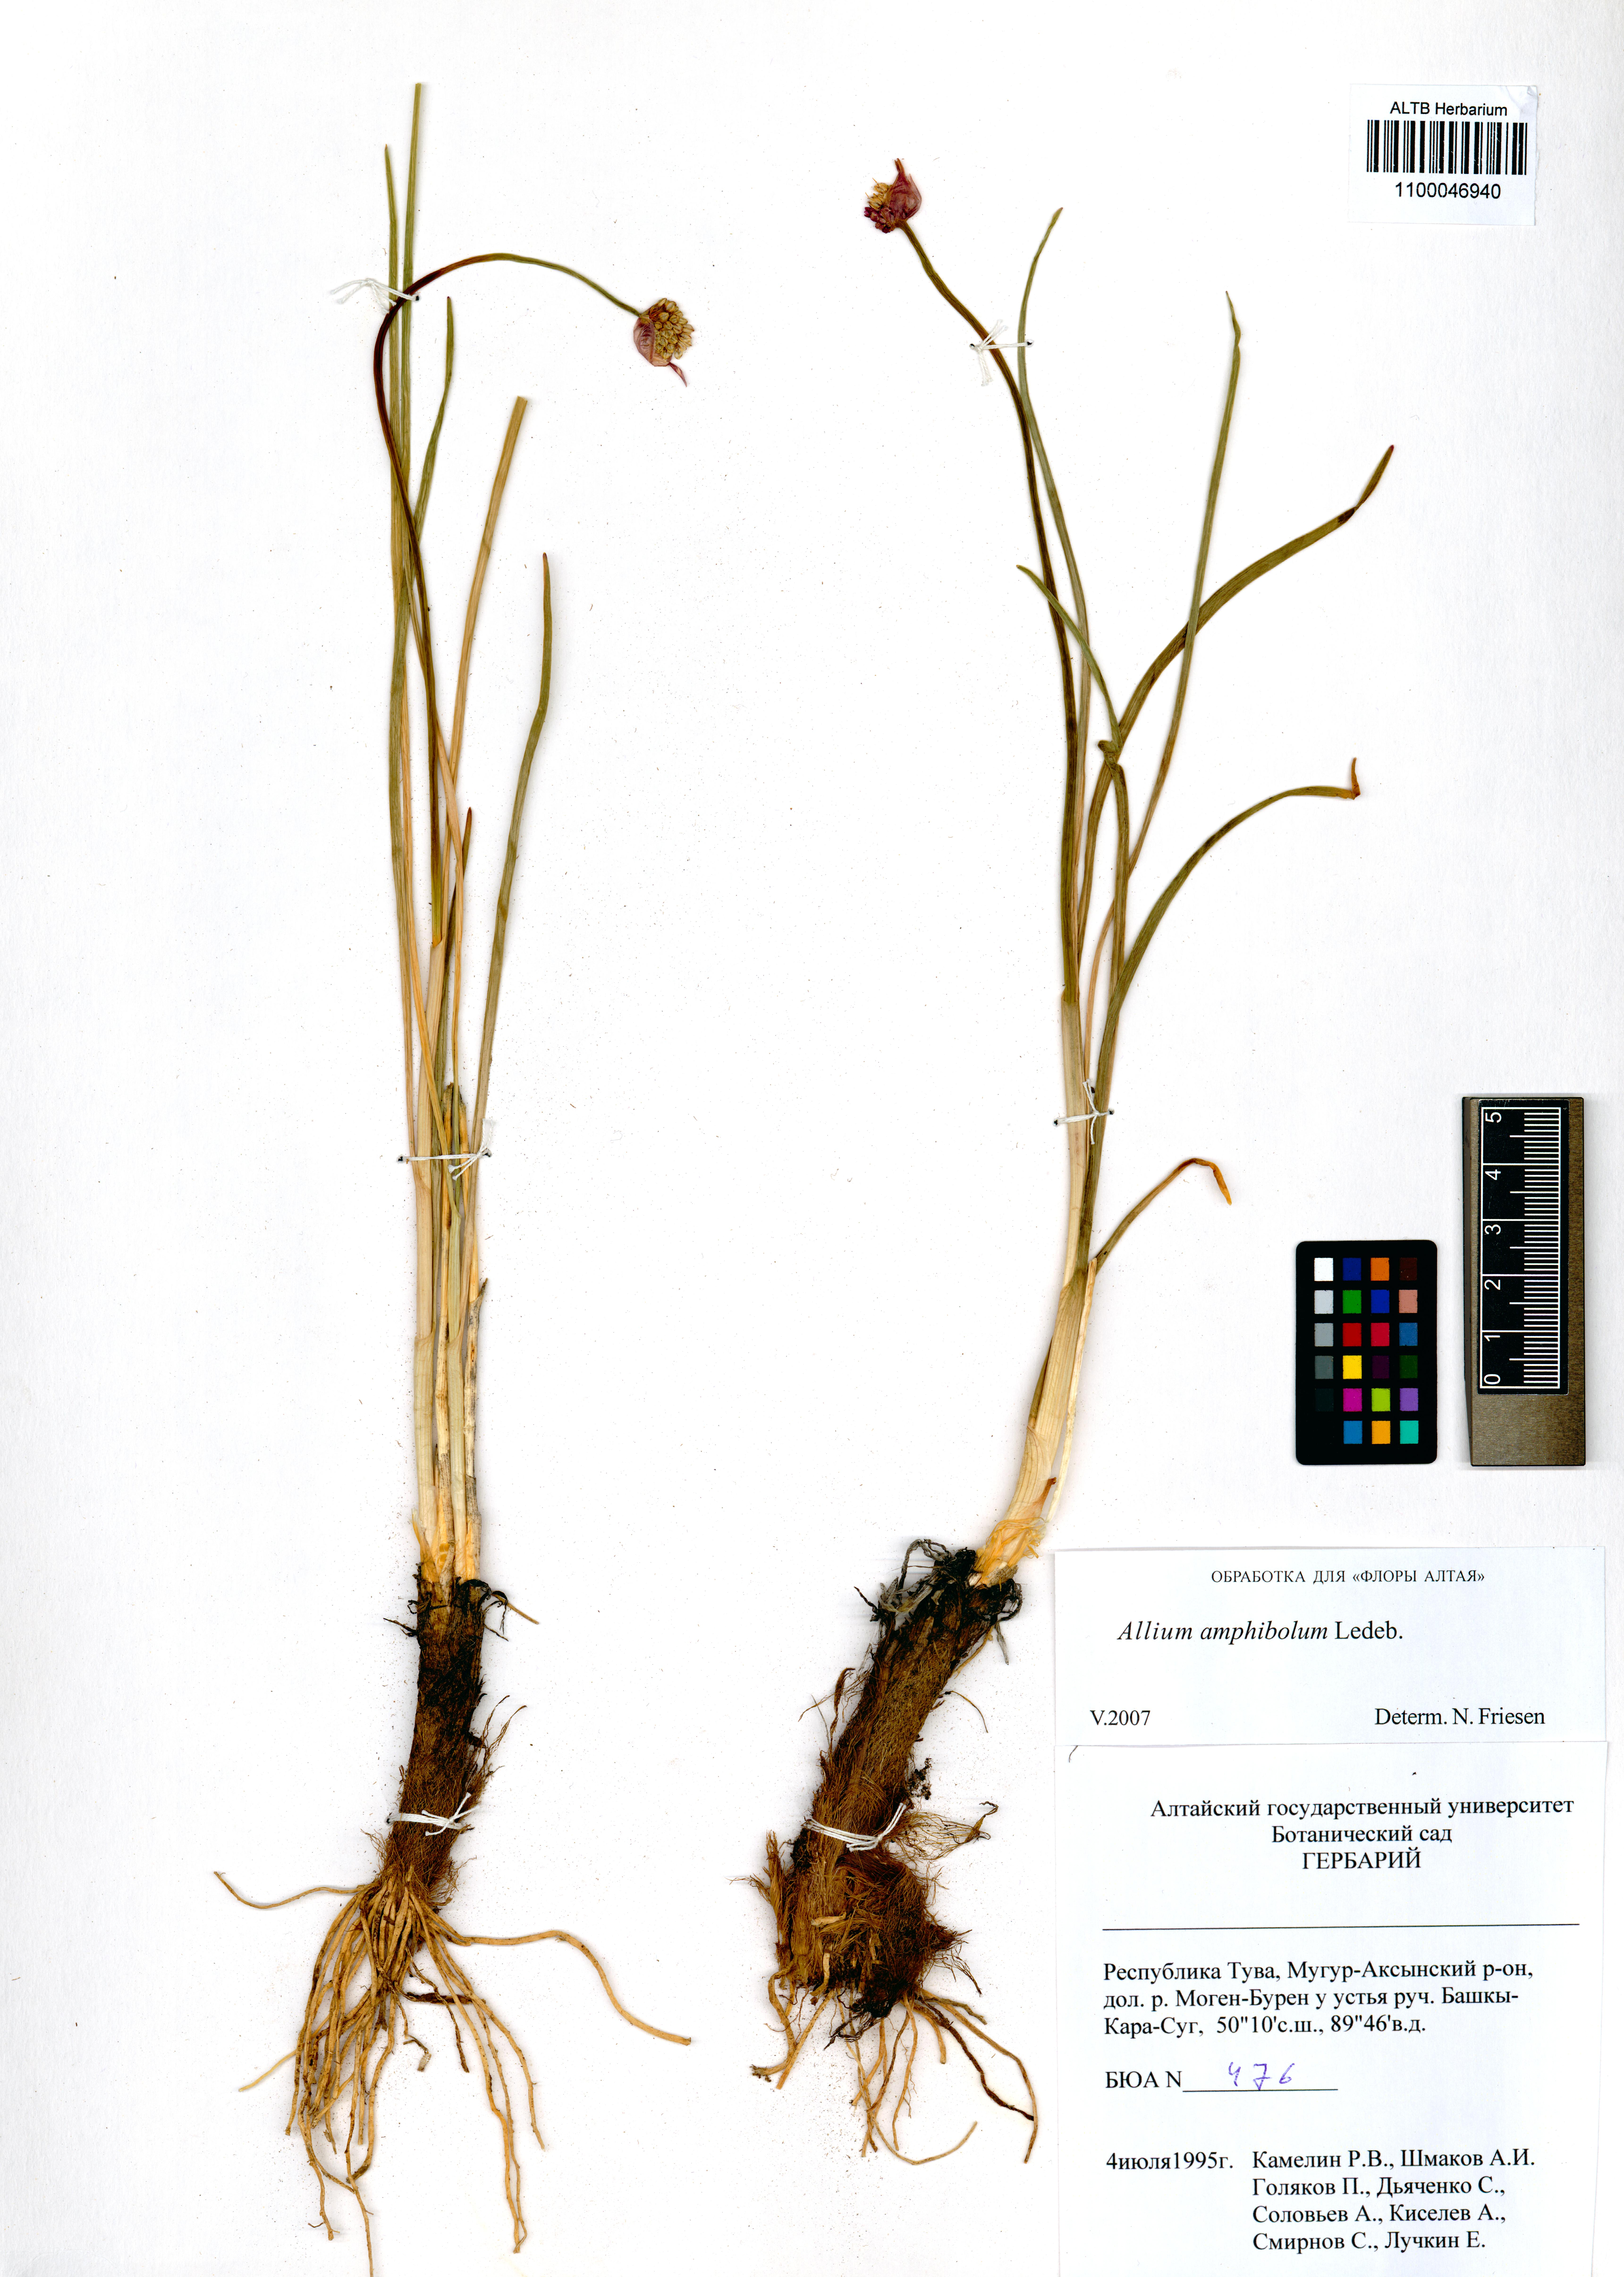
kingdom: Plantae
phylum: Tracheophyta
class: Liliopsida
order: Asparagales
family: Amaryllidaceae
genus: Allium
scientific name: Allium amphibolum
